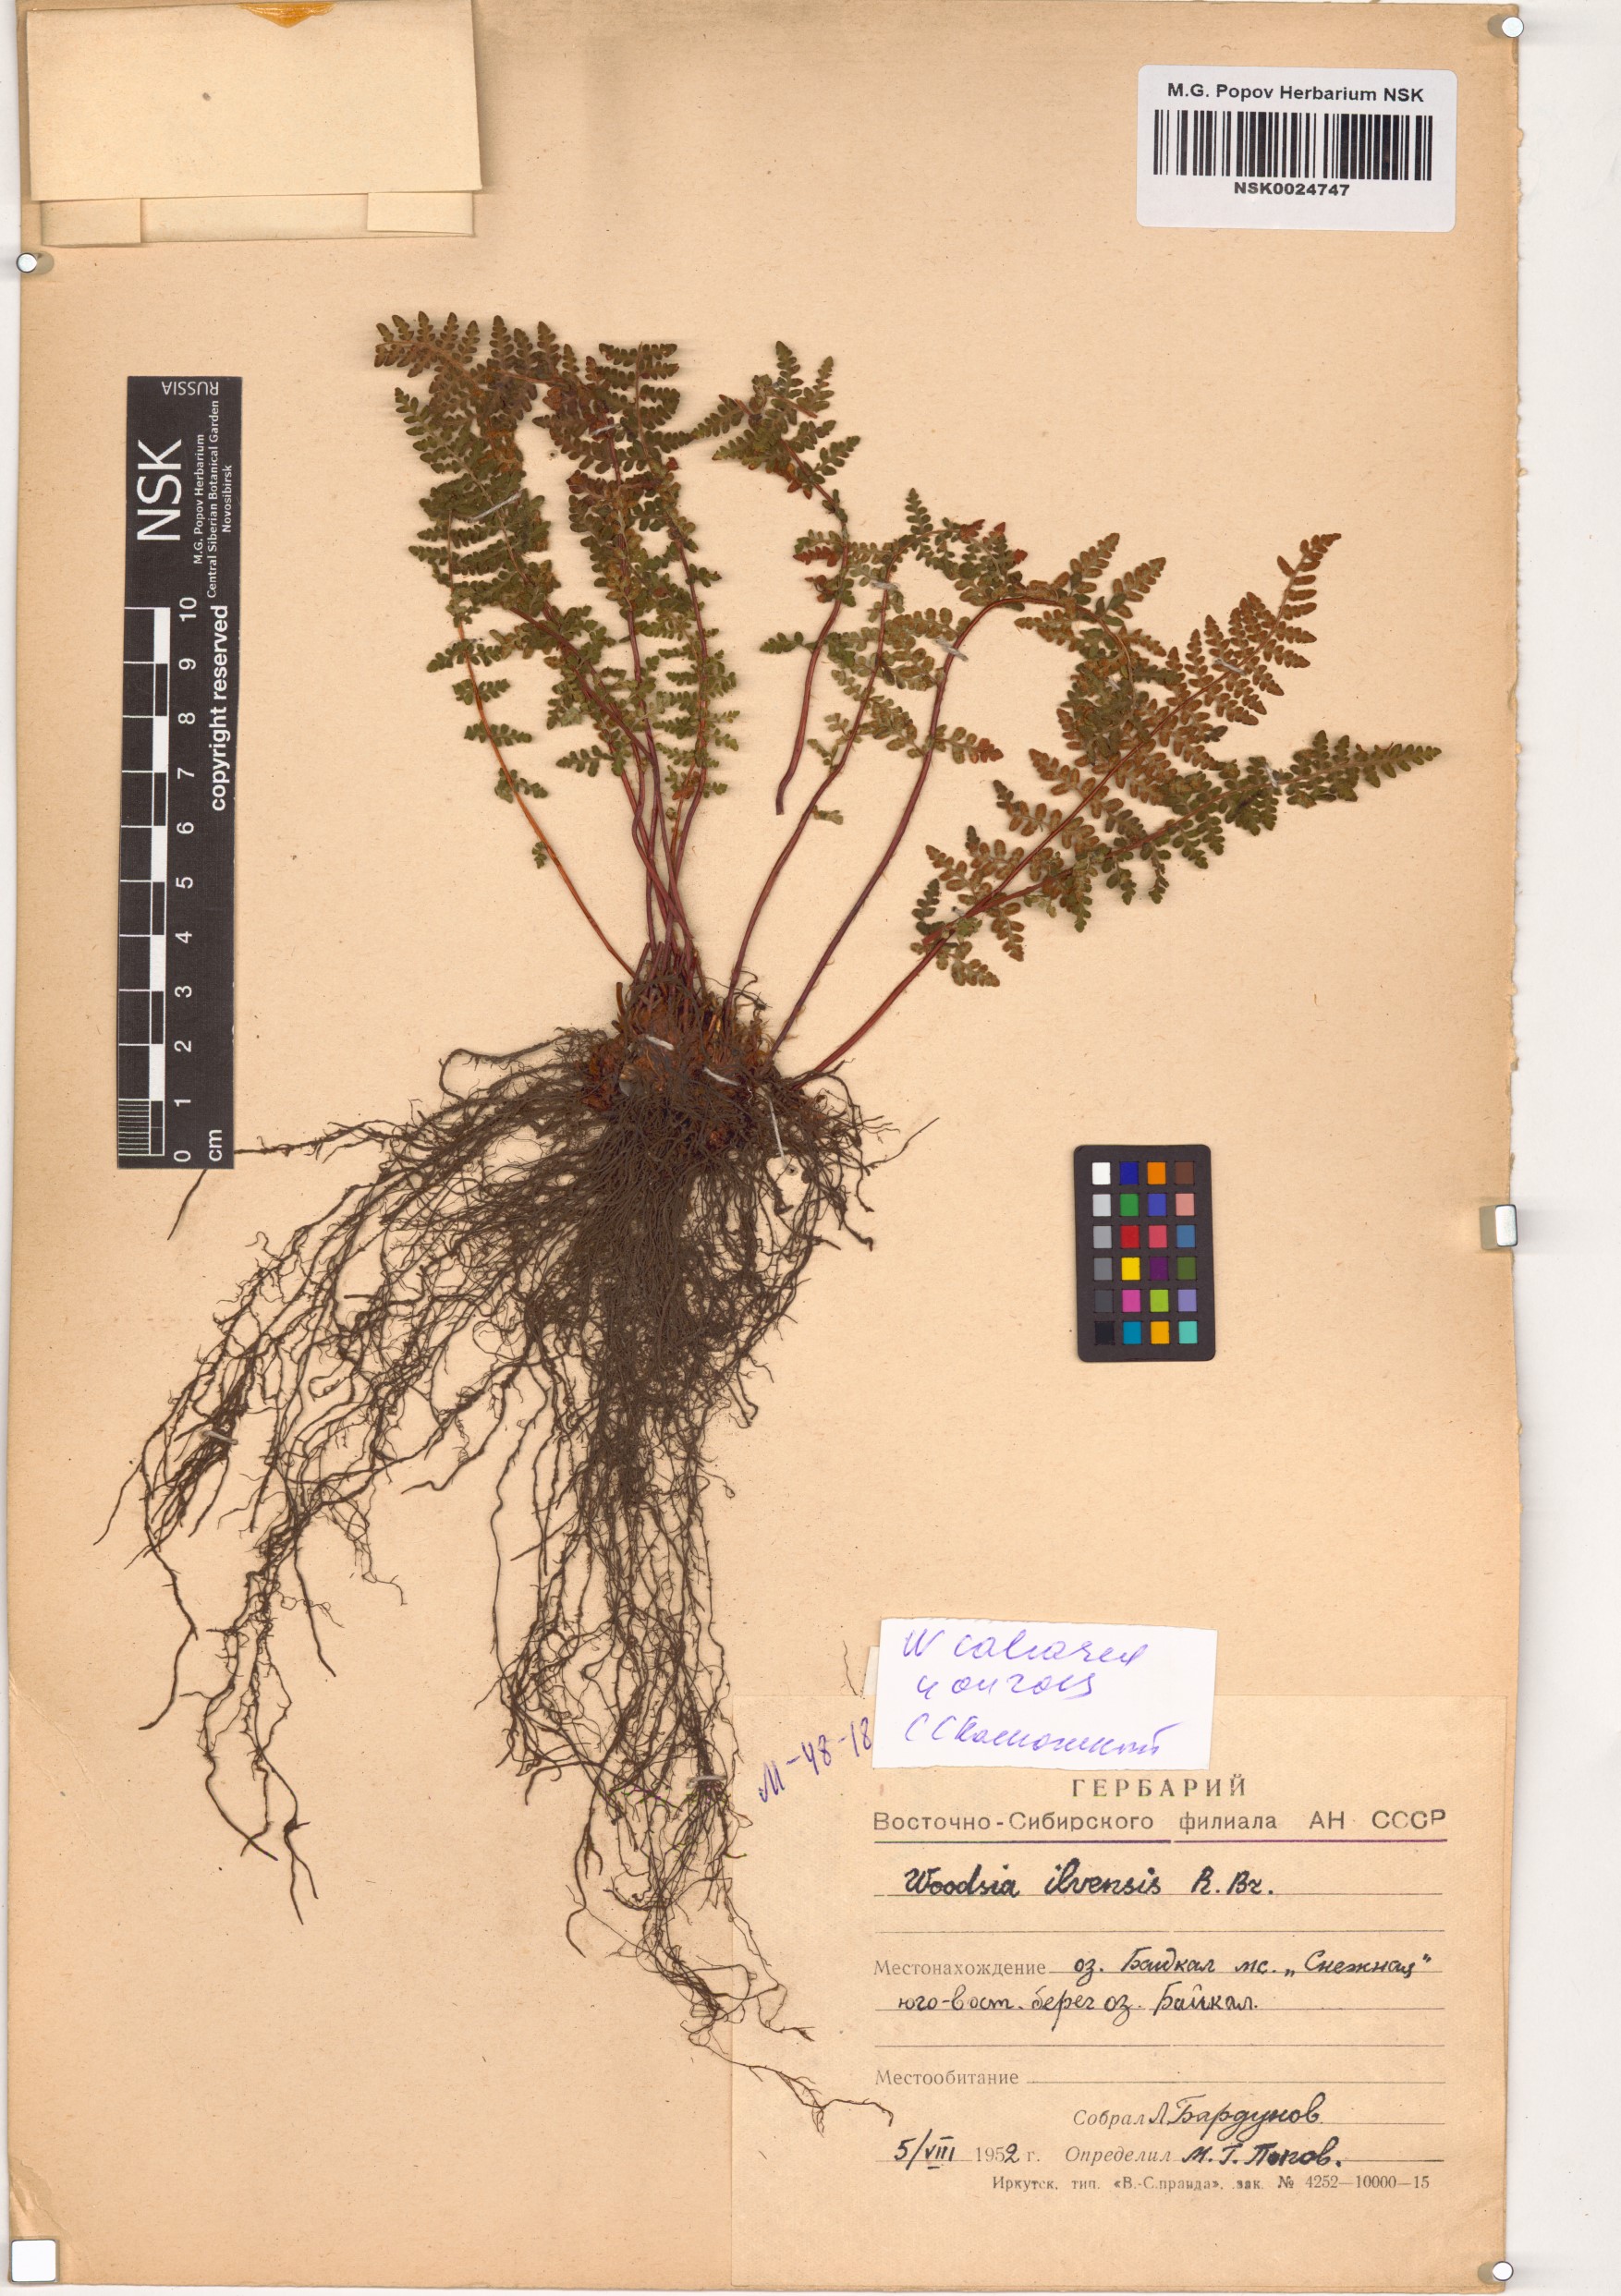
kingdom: Plantae
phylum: Tracheophyta
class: Polypodiopsida
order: Polypodiales
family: Woodsiaceae
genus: Woodsia
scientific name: Woodsia calcarea
